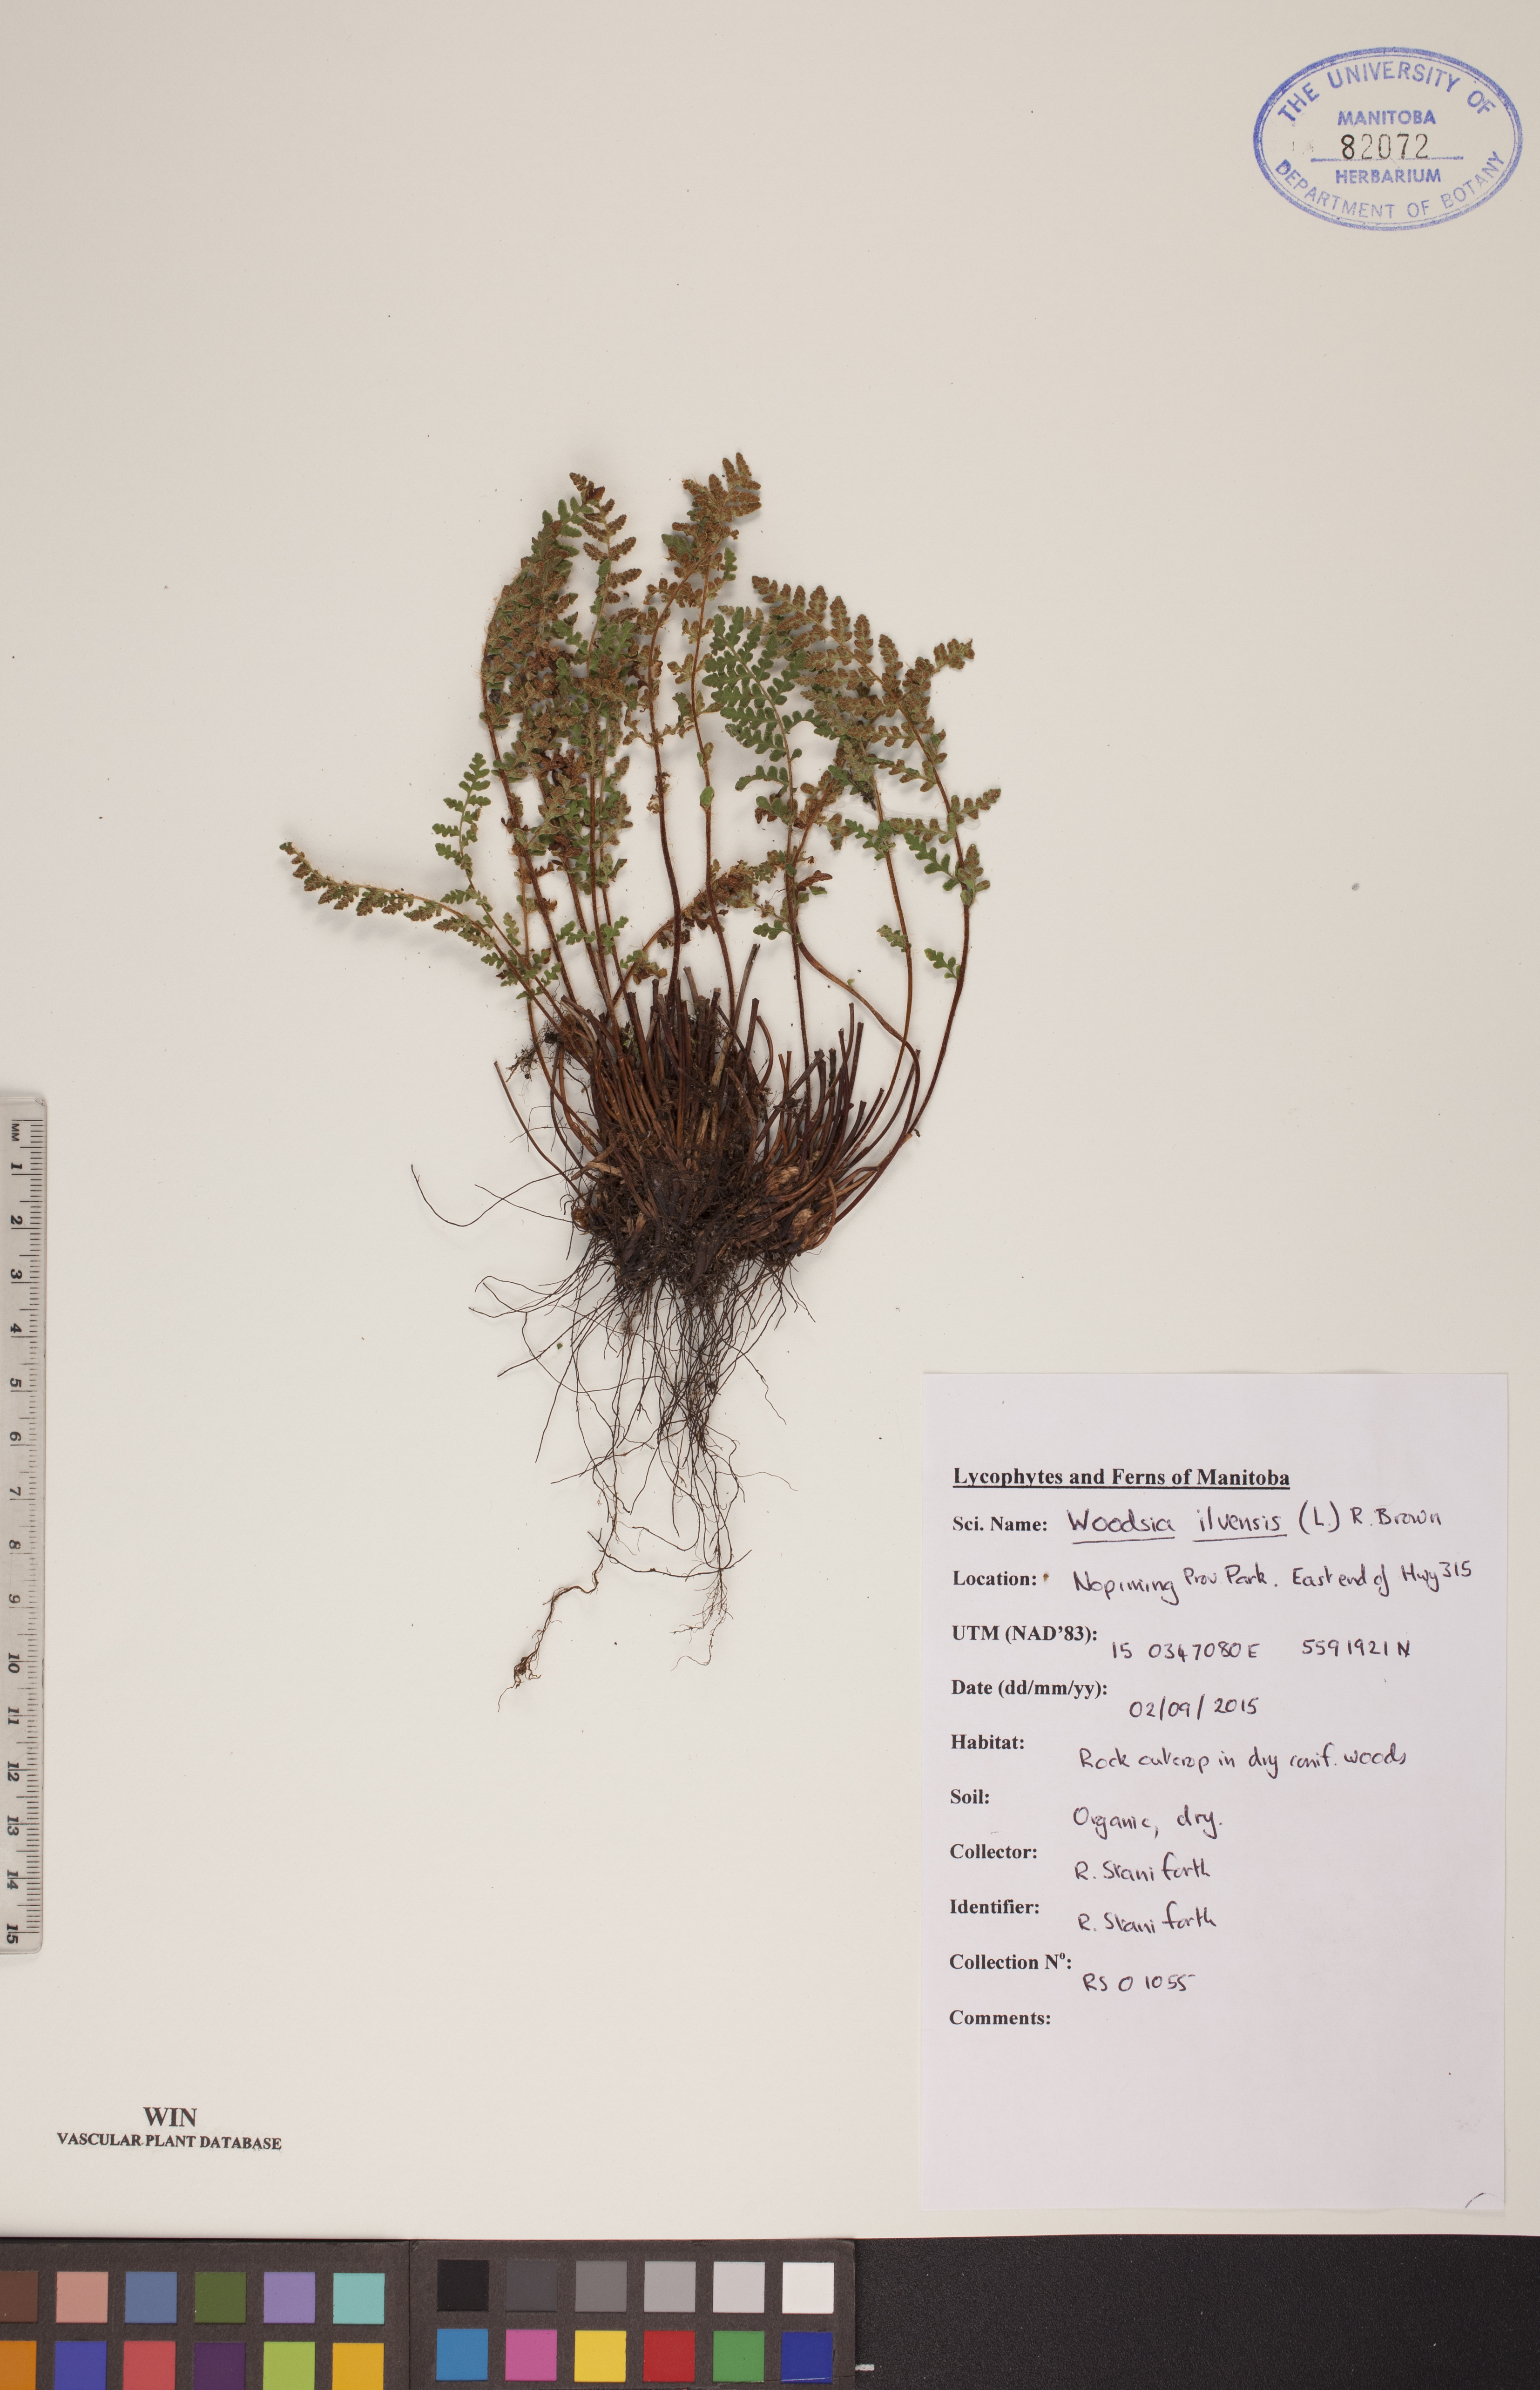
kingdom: Plantae
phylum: Tracheophyta
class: Polypodiopsida
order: Polypodiales
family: Woodsiaceae
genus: Woodsia
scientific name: Woodsia ilvensis
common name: Fragrant woodsia
